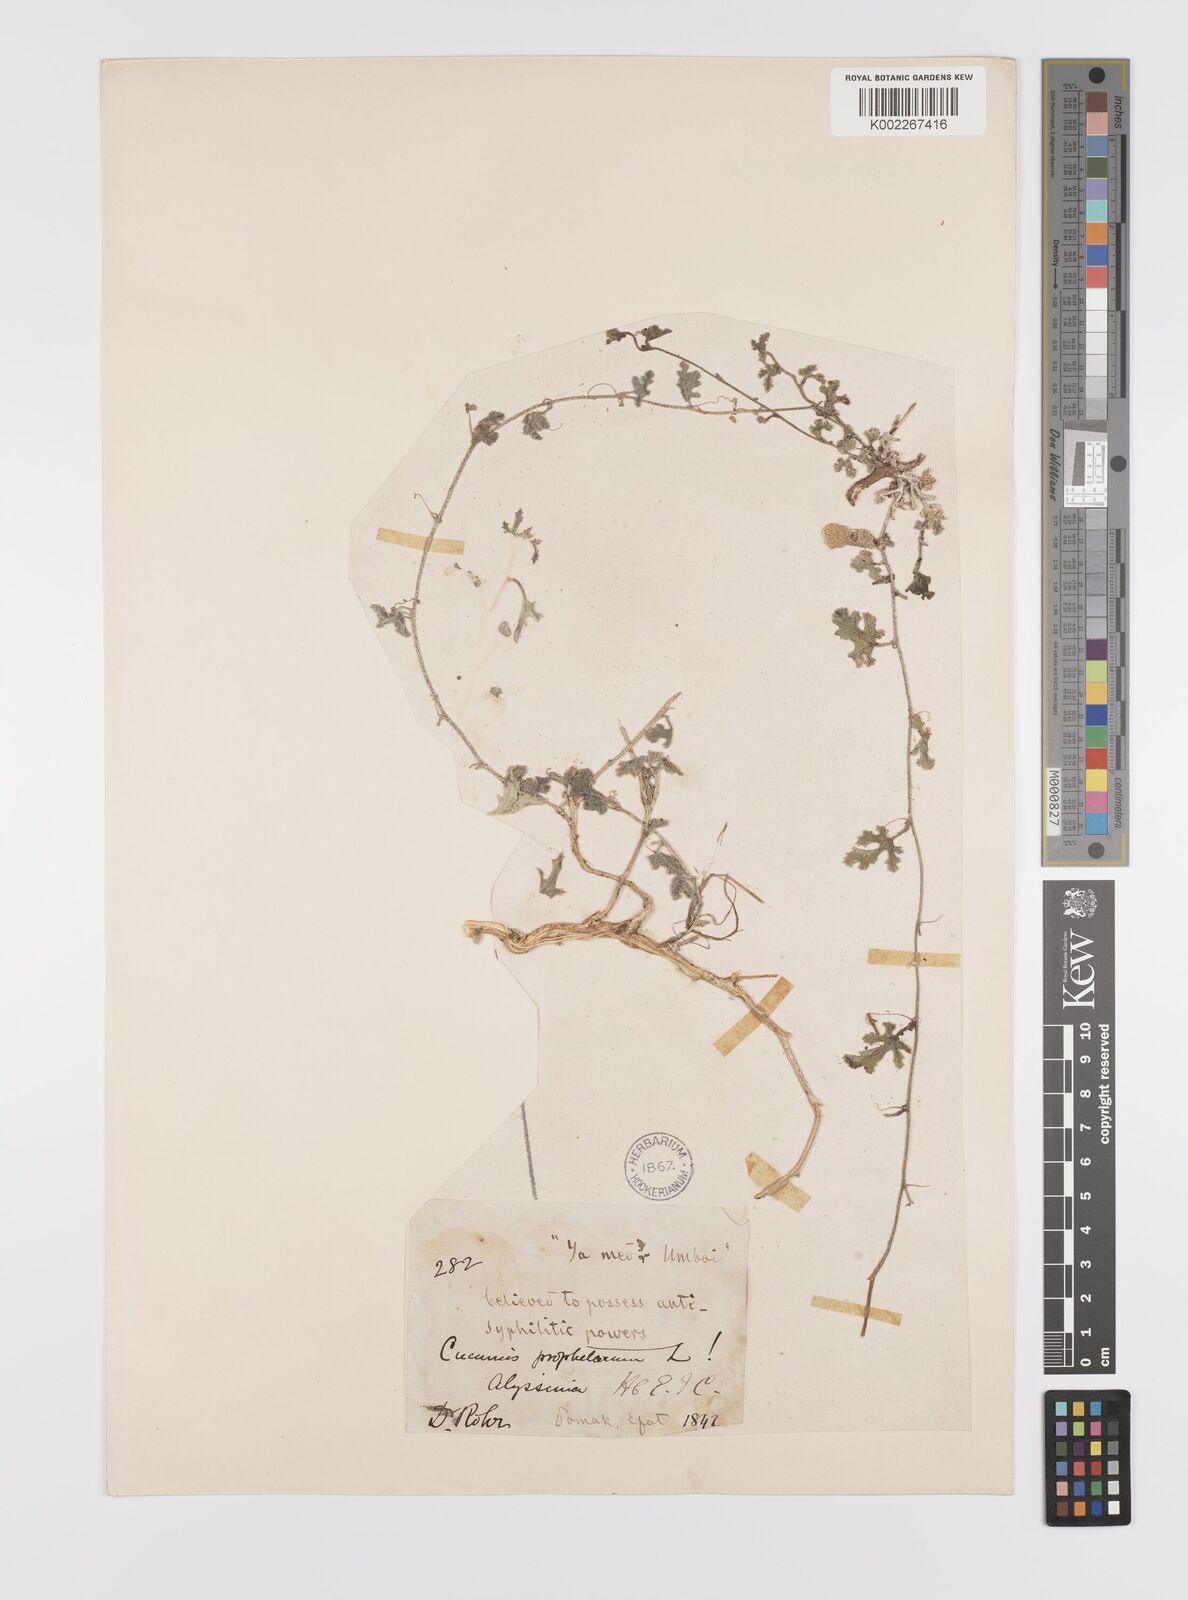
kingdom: Plantae
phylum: Tracheophyta
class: Magnoliopsida
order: Cucurbitales
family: Cucurbitaceae
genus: Cucumis
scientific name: Cucumis ficifolius
